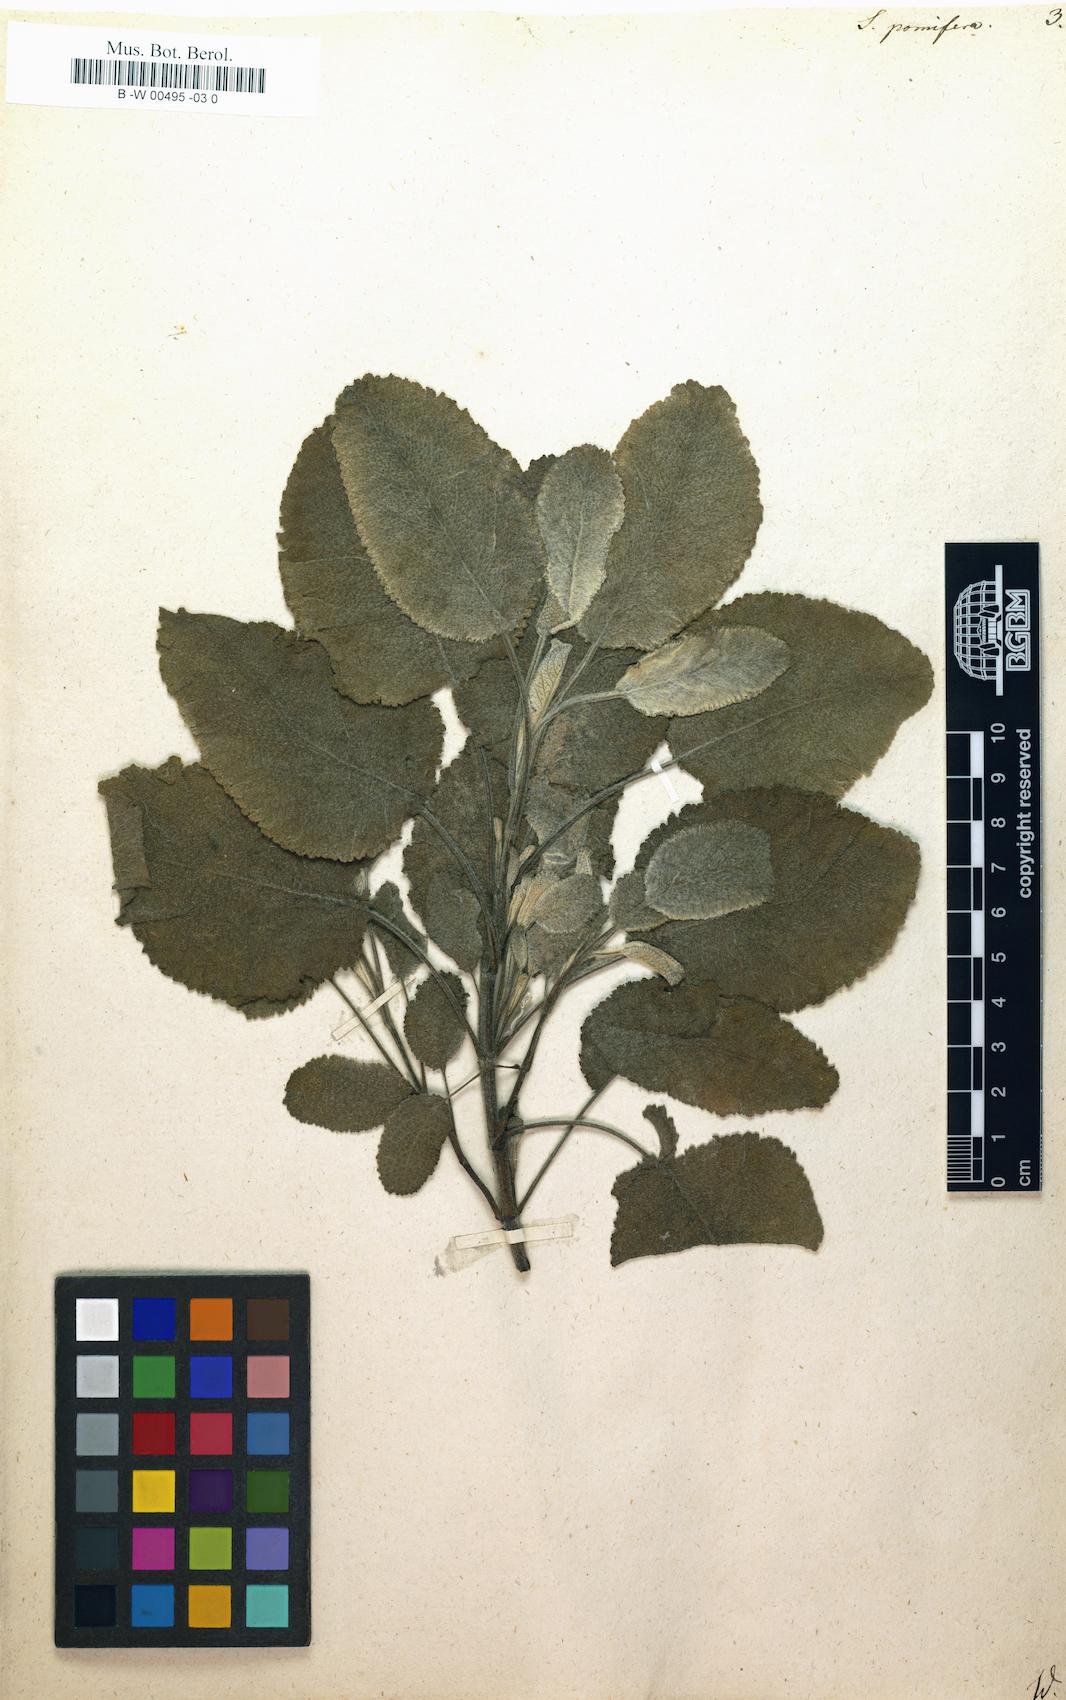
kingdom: Plantae
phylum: Tracheophyta
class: Magnoliopsida
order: Lamiales
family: Lamiaceae
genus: Salvia
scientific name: Salvia pomifera
